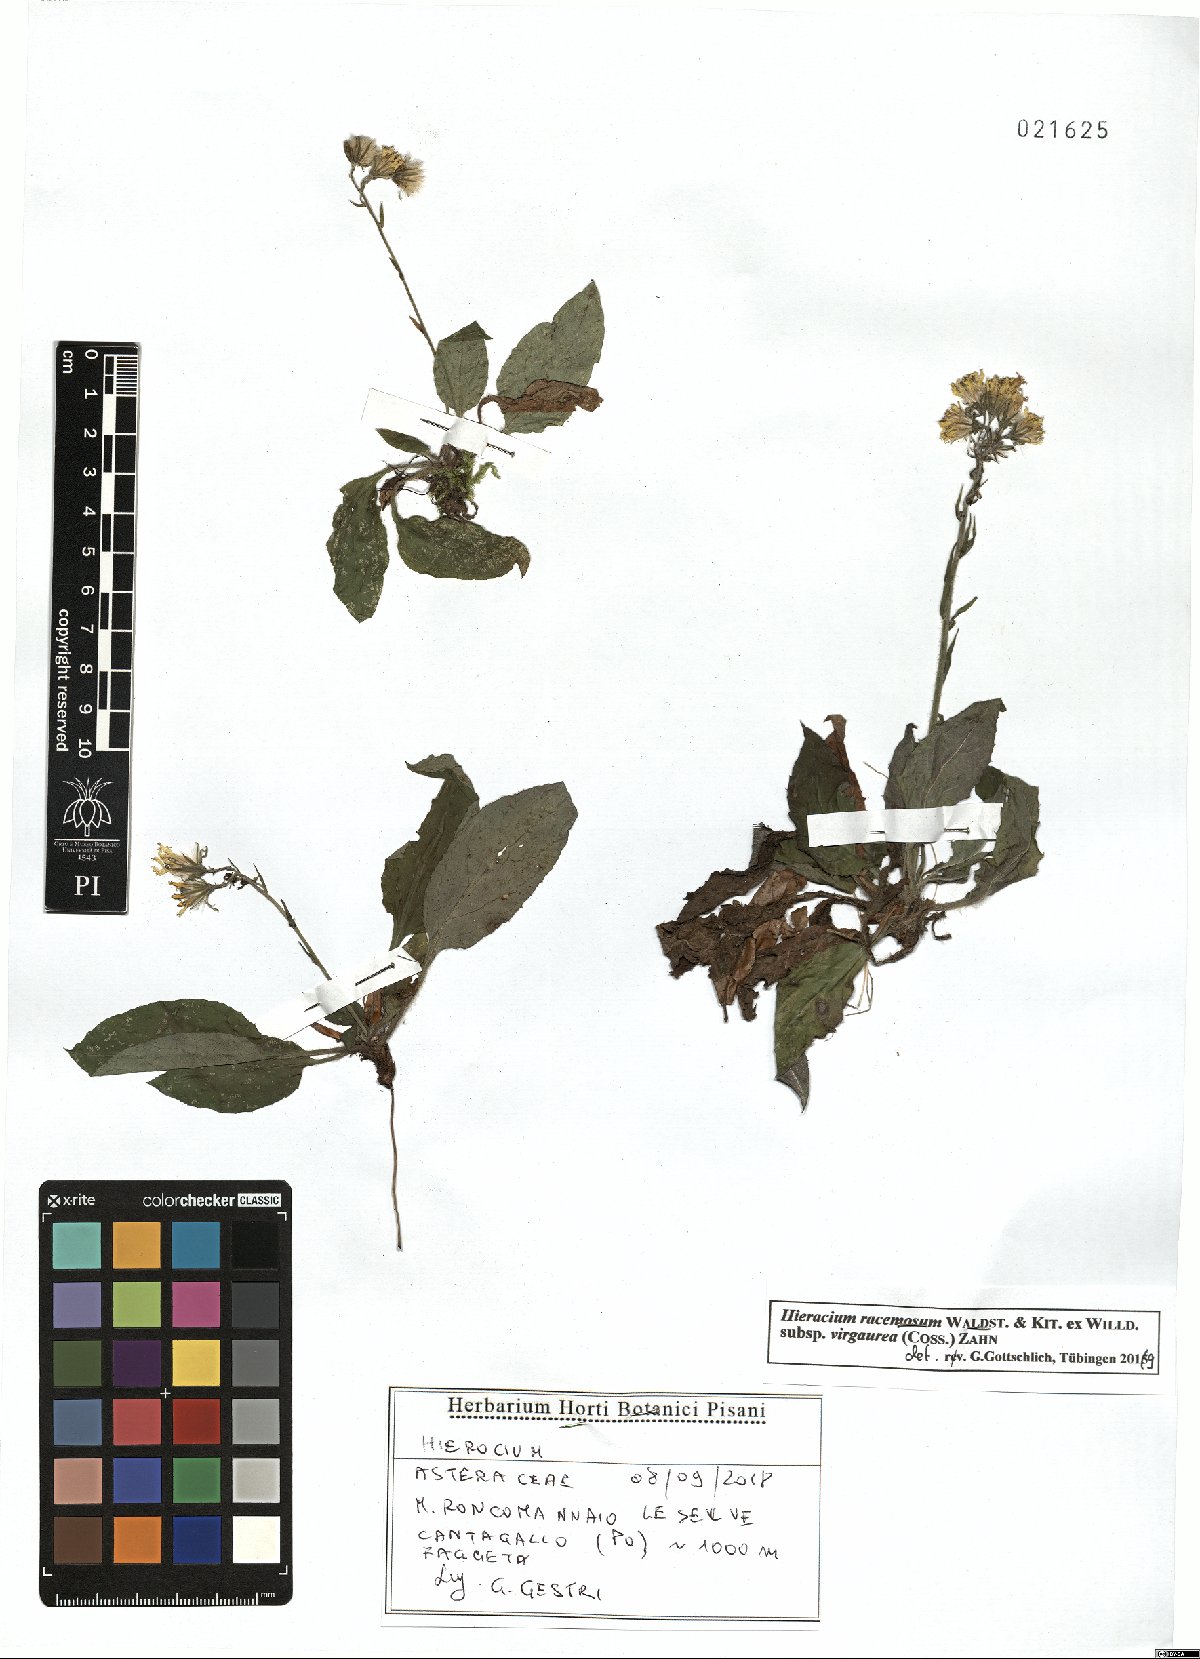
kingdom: Plantae
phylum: Tracheophyta
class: Magnoliopsida
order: Asterales
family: Asteraceae
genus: Hieracium
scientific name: Hieracium racemosum
